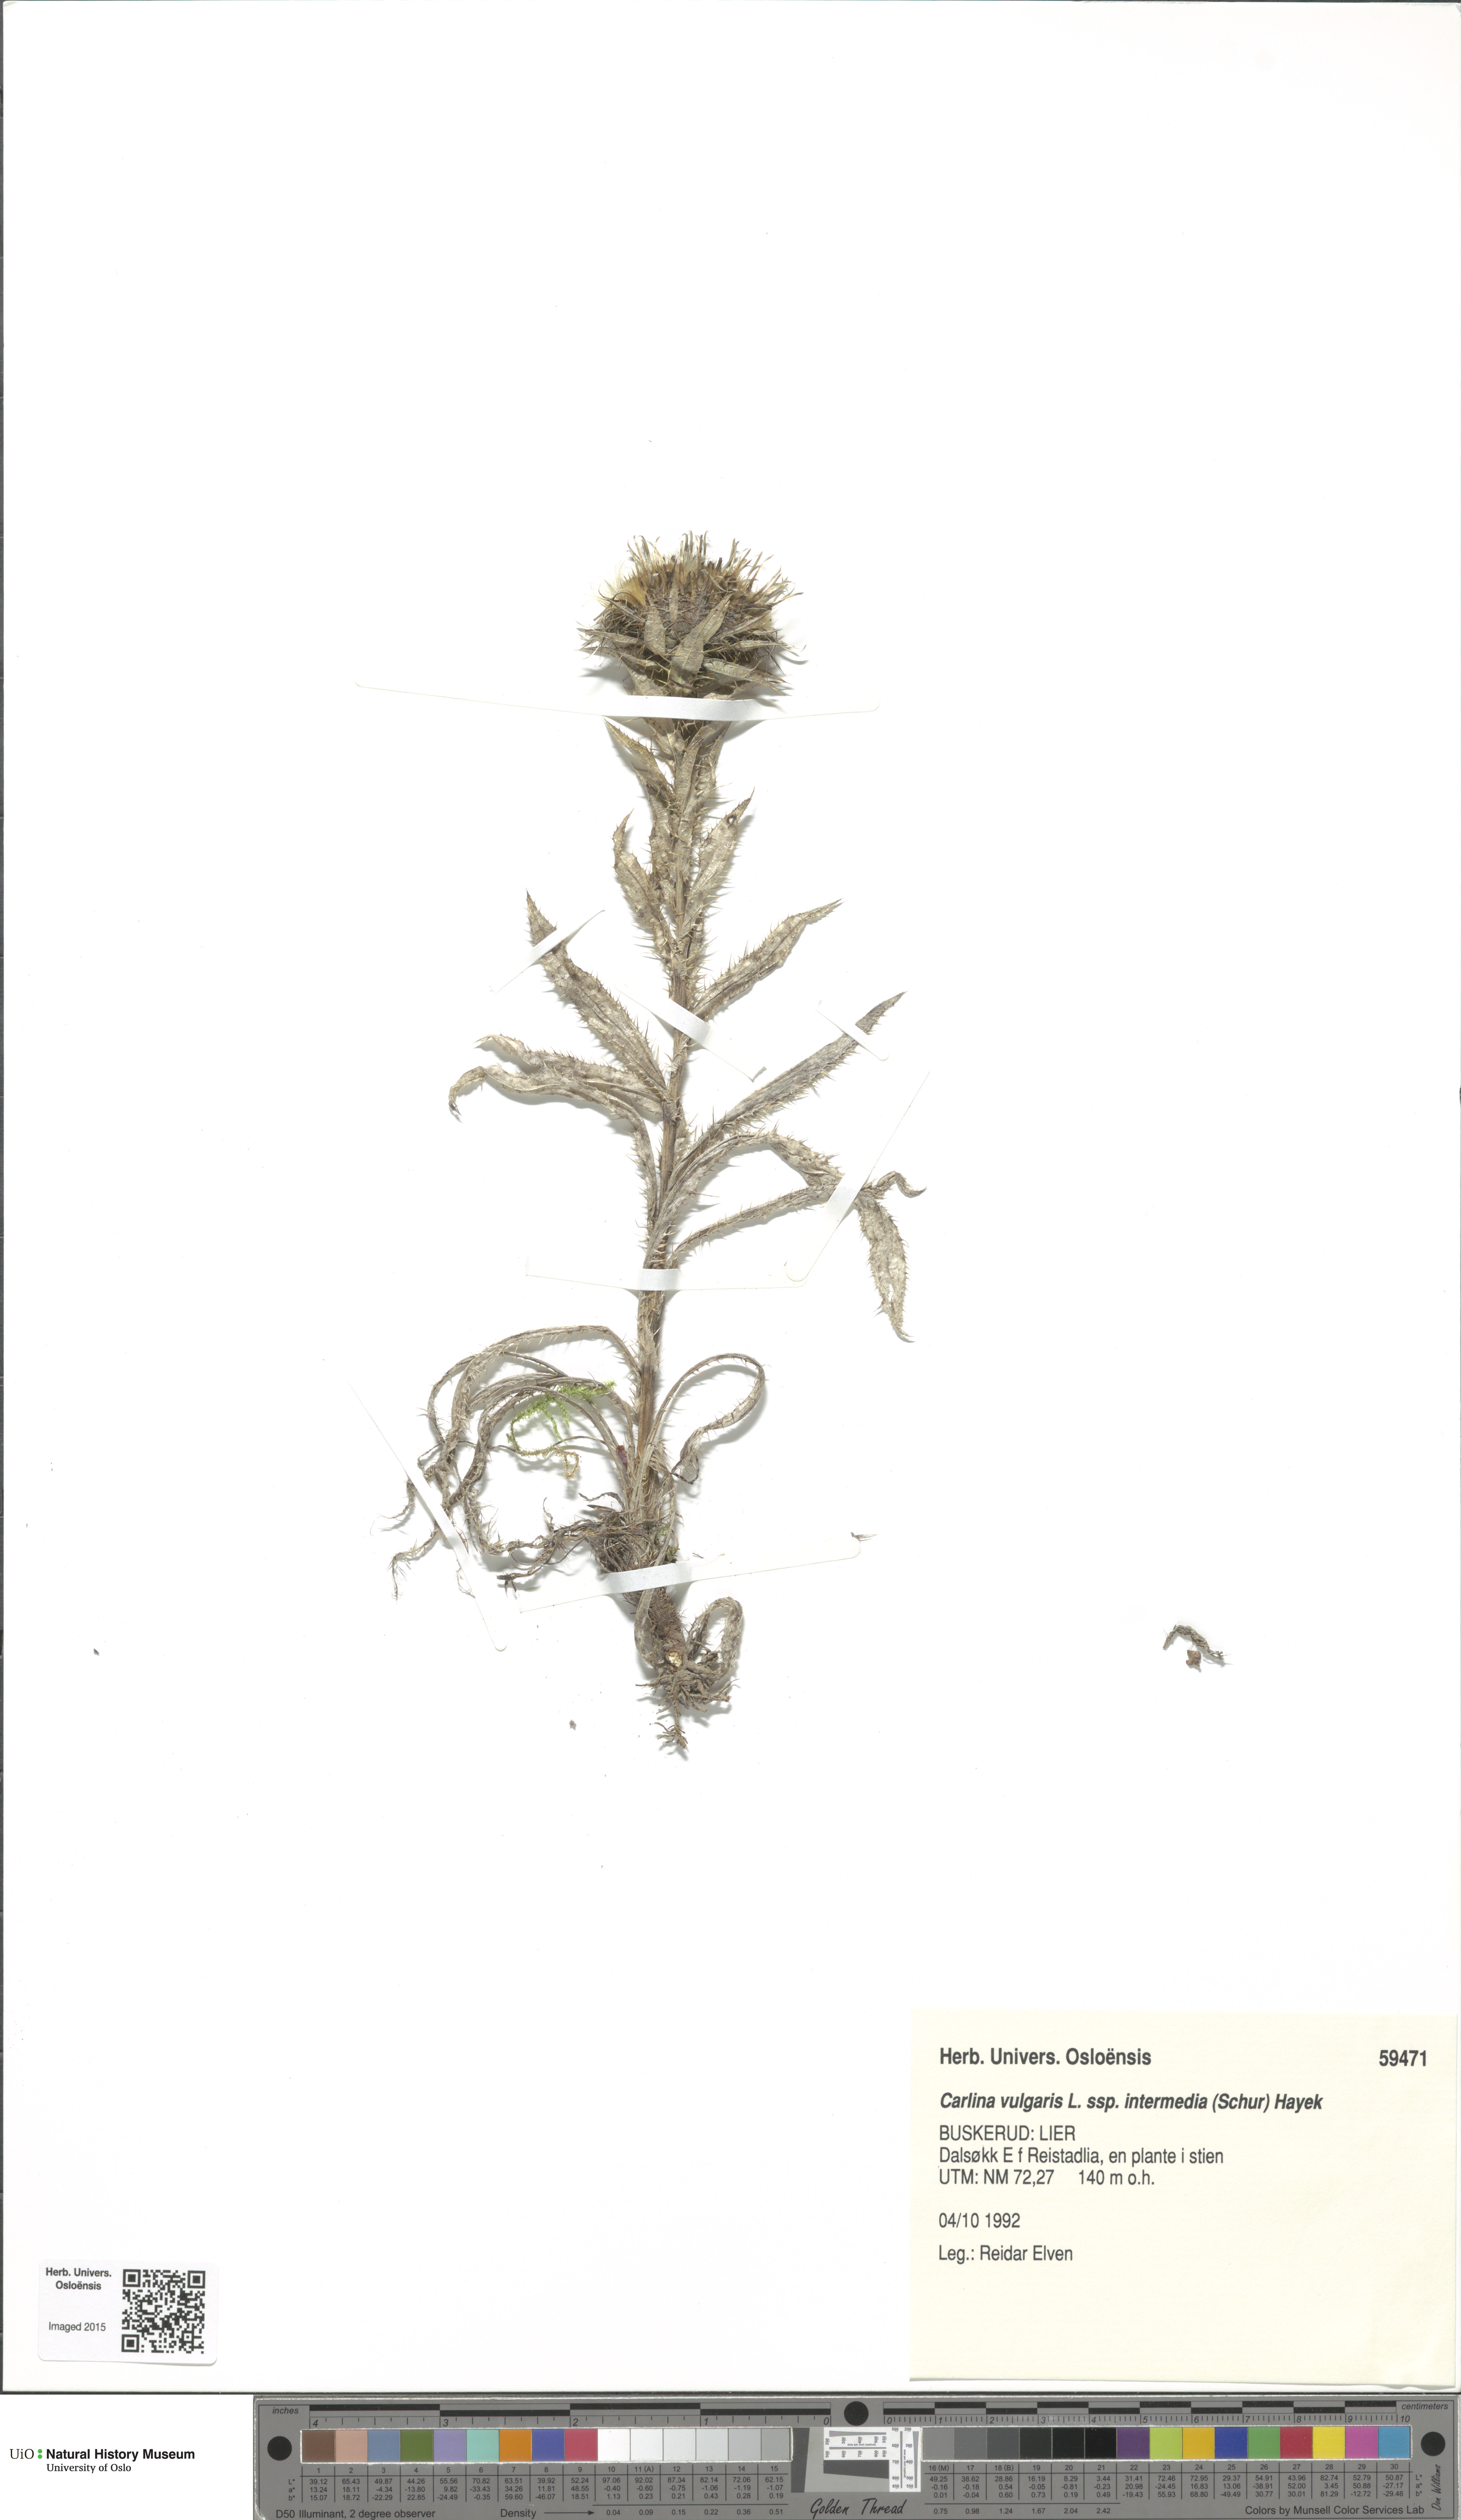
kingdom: Plantae
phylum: Tracheophyta
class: Magnoliopsida
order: Asterales
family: Asteraceae
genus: Carlina
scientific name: Carlina biebersteinii
